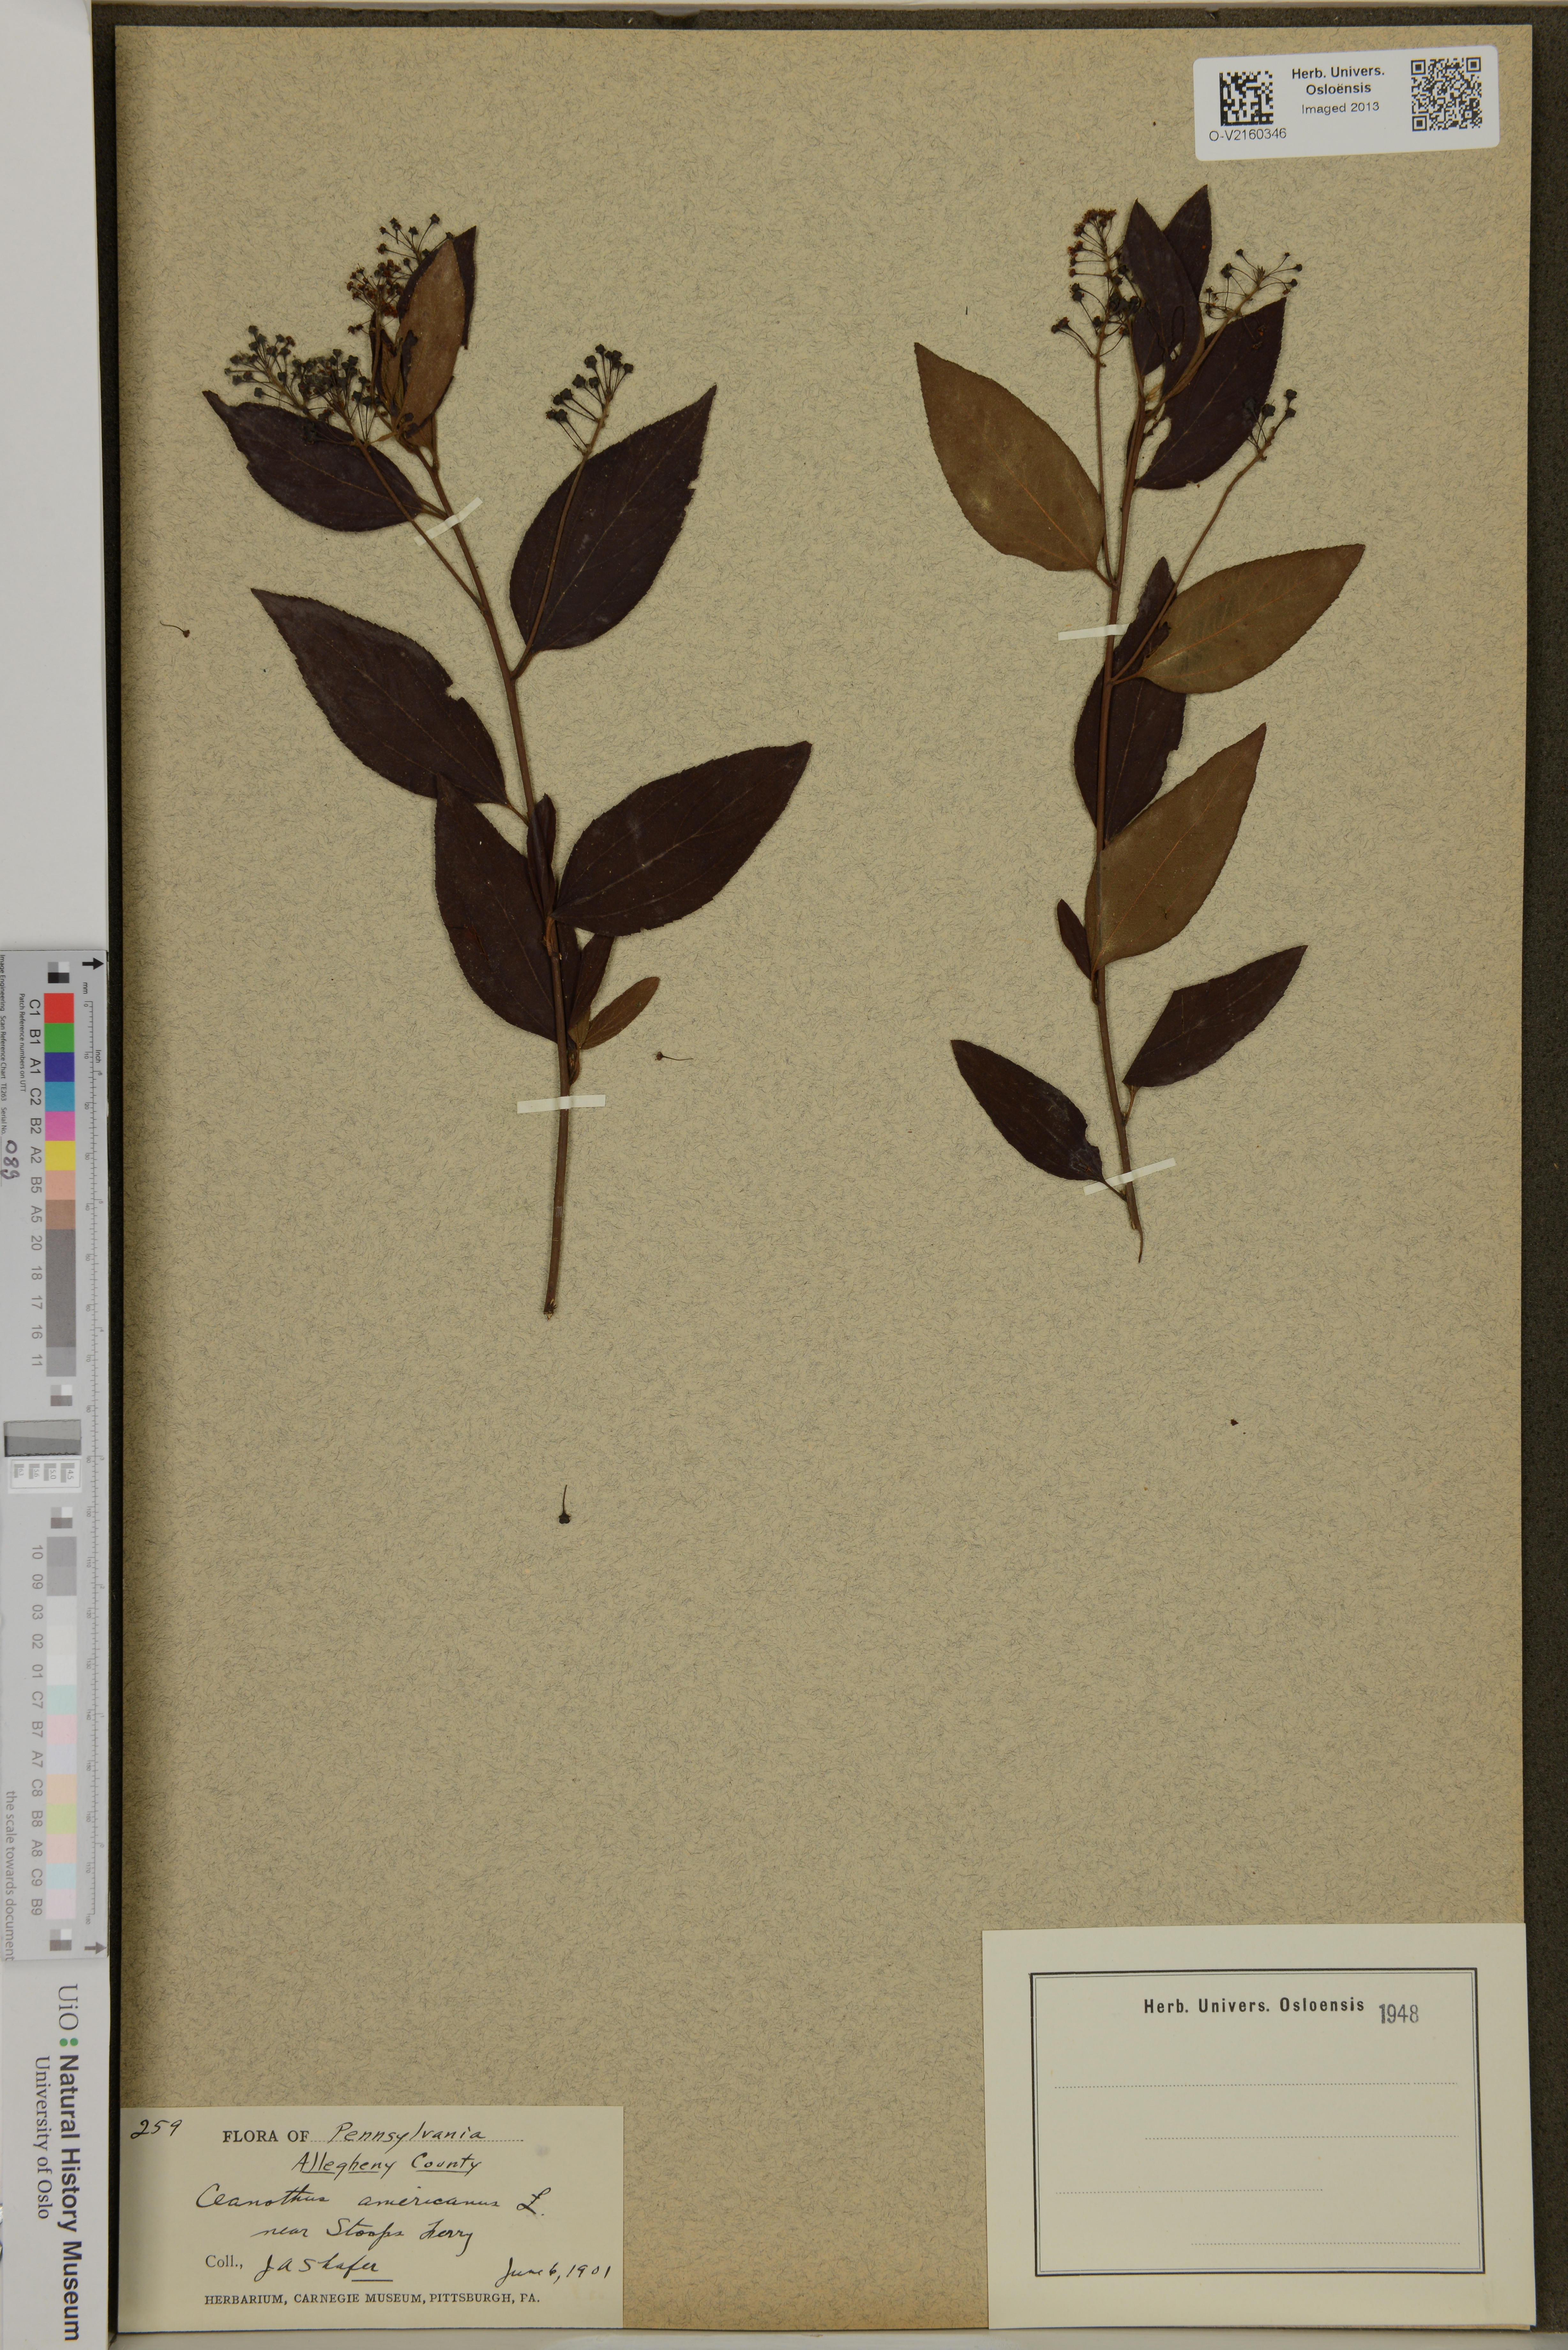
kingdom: Plantae
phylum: Tracheophyta
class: Magnoliopsida
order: Rosales
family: Rhamnaceae
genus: Ceanothus
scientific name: Ceanothus americanus
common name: Redroot
